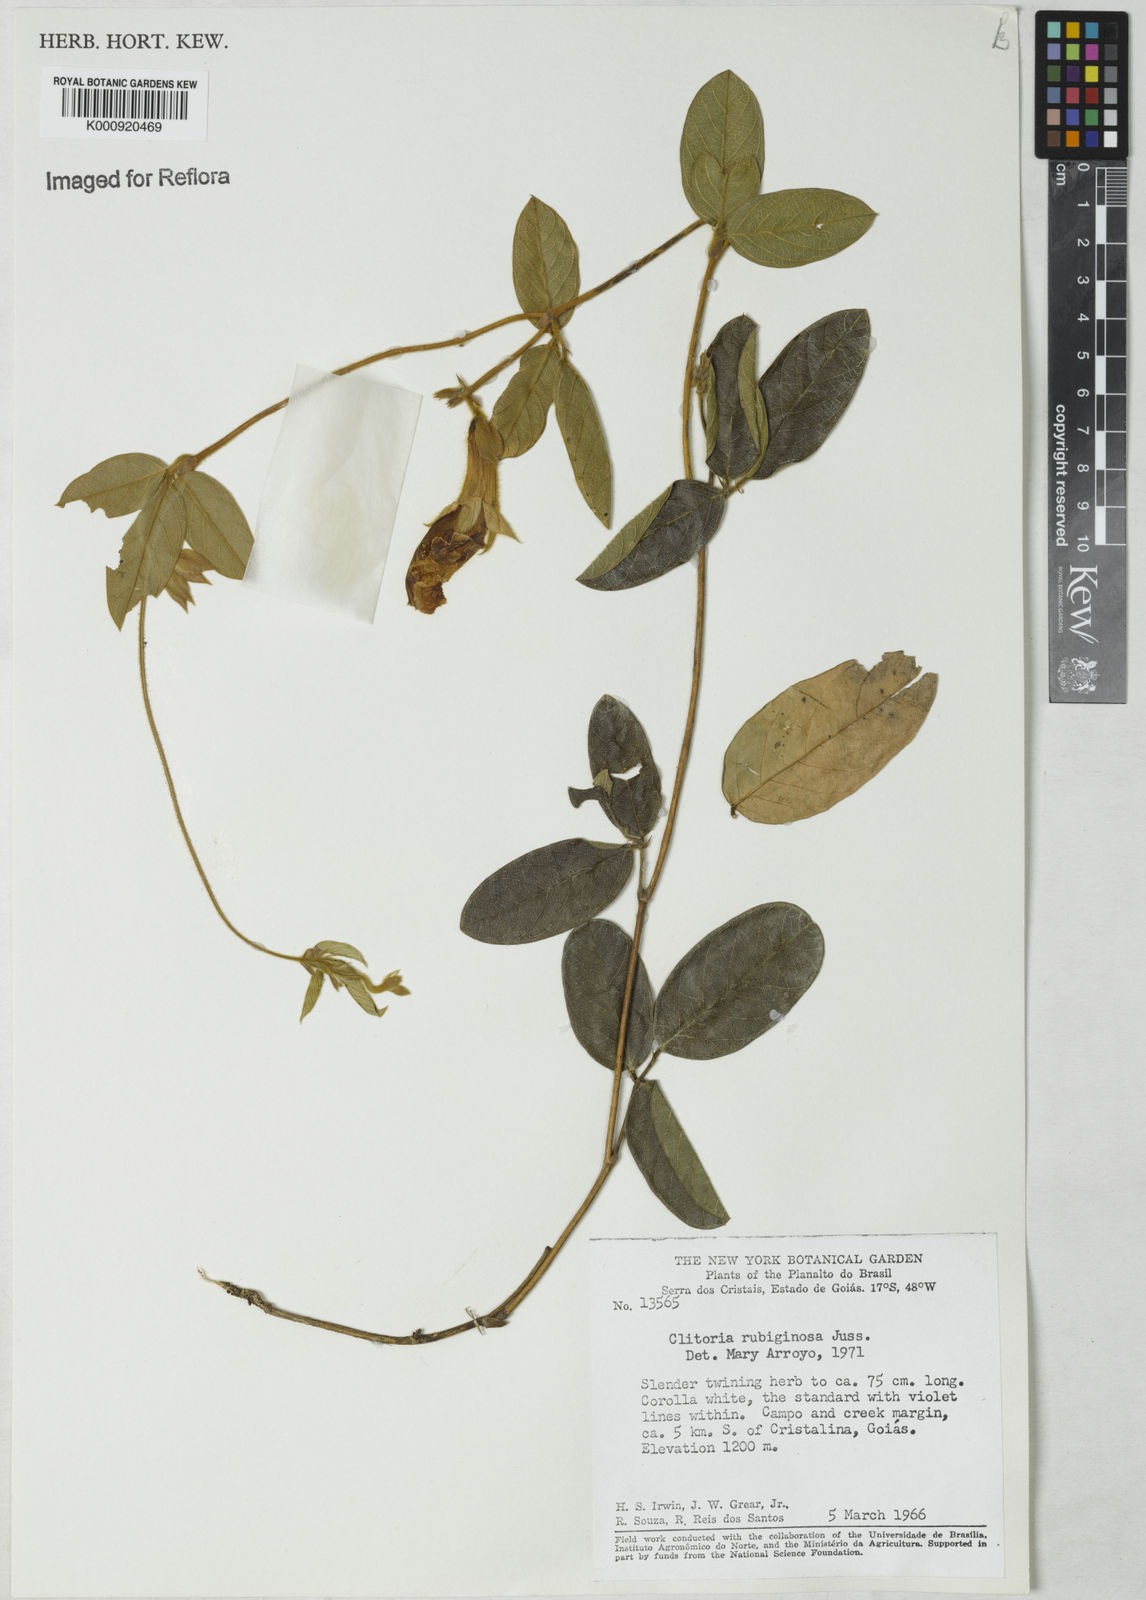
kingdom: Plantae
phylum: Tracheophyta
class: Magnoliopsida
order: Fabales
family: Fabaceae
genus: Clitoria
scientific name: Clitoria
